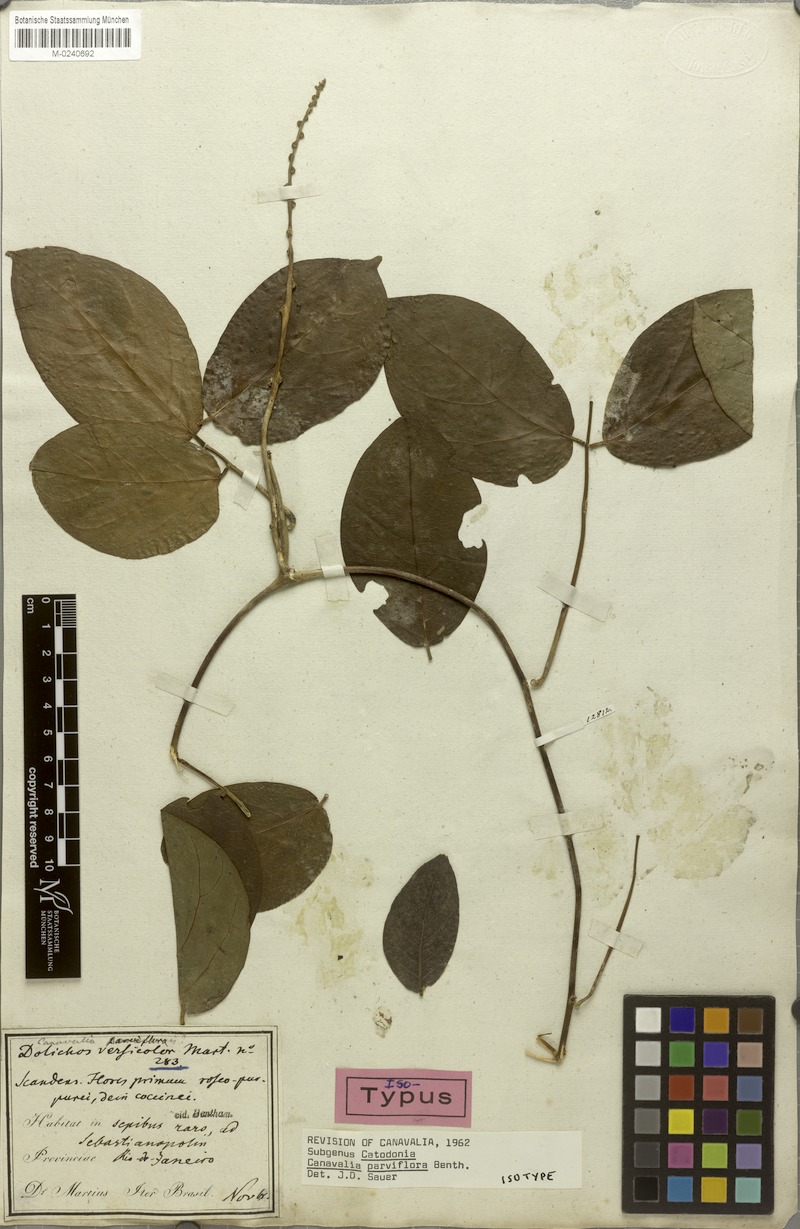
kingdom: Plantae
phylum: Tracheophyta
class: Magnoliopsida
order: Fabales
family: Fabaceae
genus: Canavalia
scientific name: Canavalia parviflora
